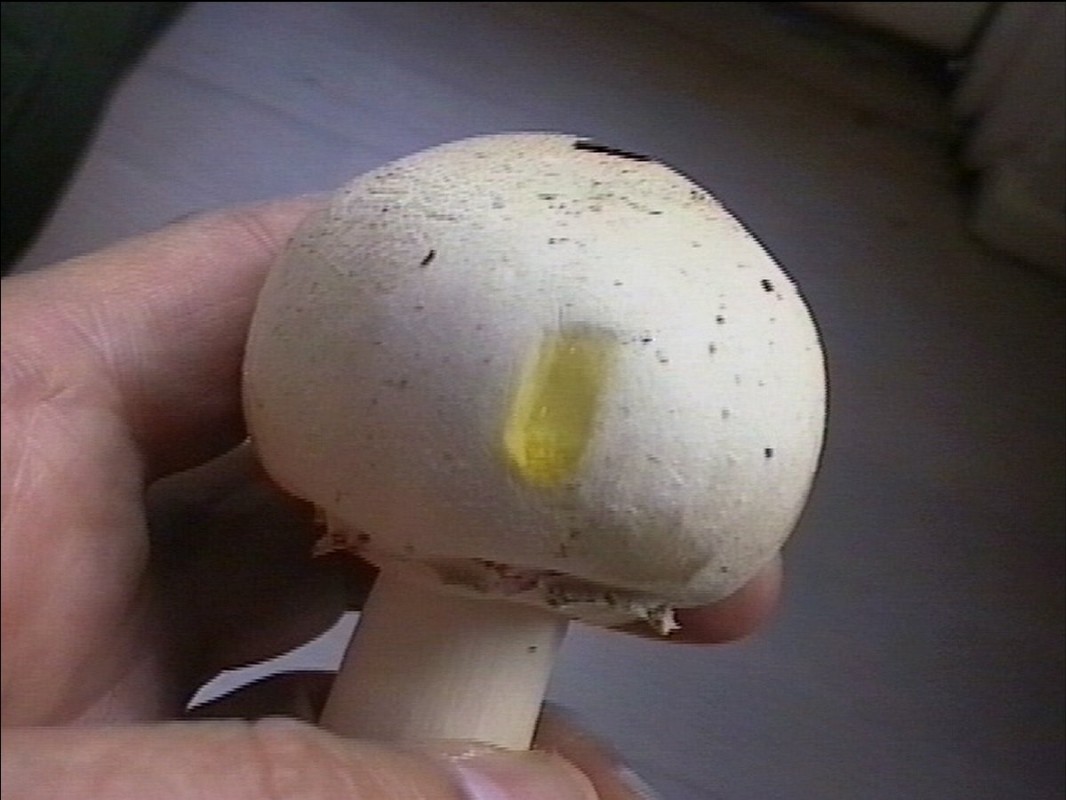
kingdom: Fungi
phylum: Basidiomycota
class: Agaricomycetes
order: Agaricales
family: Agaricaceae
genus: Agaricus
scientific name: Agaricus xanthodermus
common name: karbol-champignon
